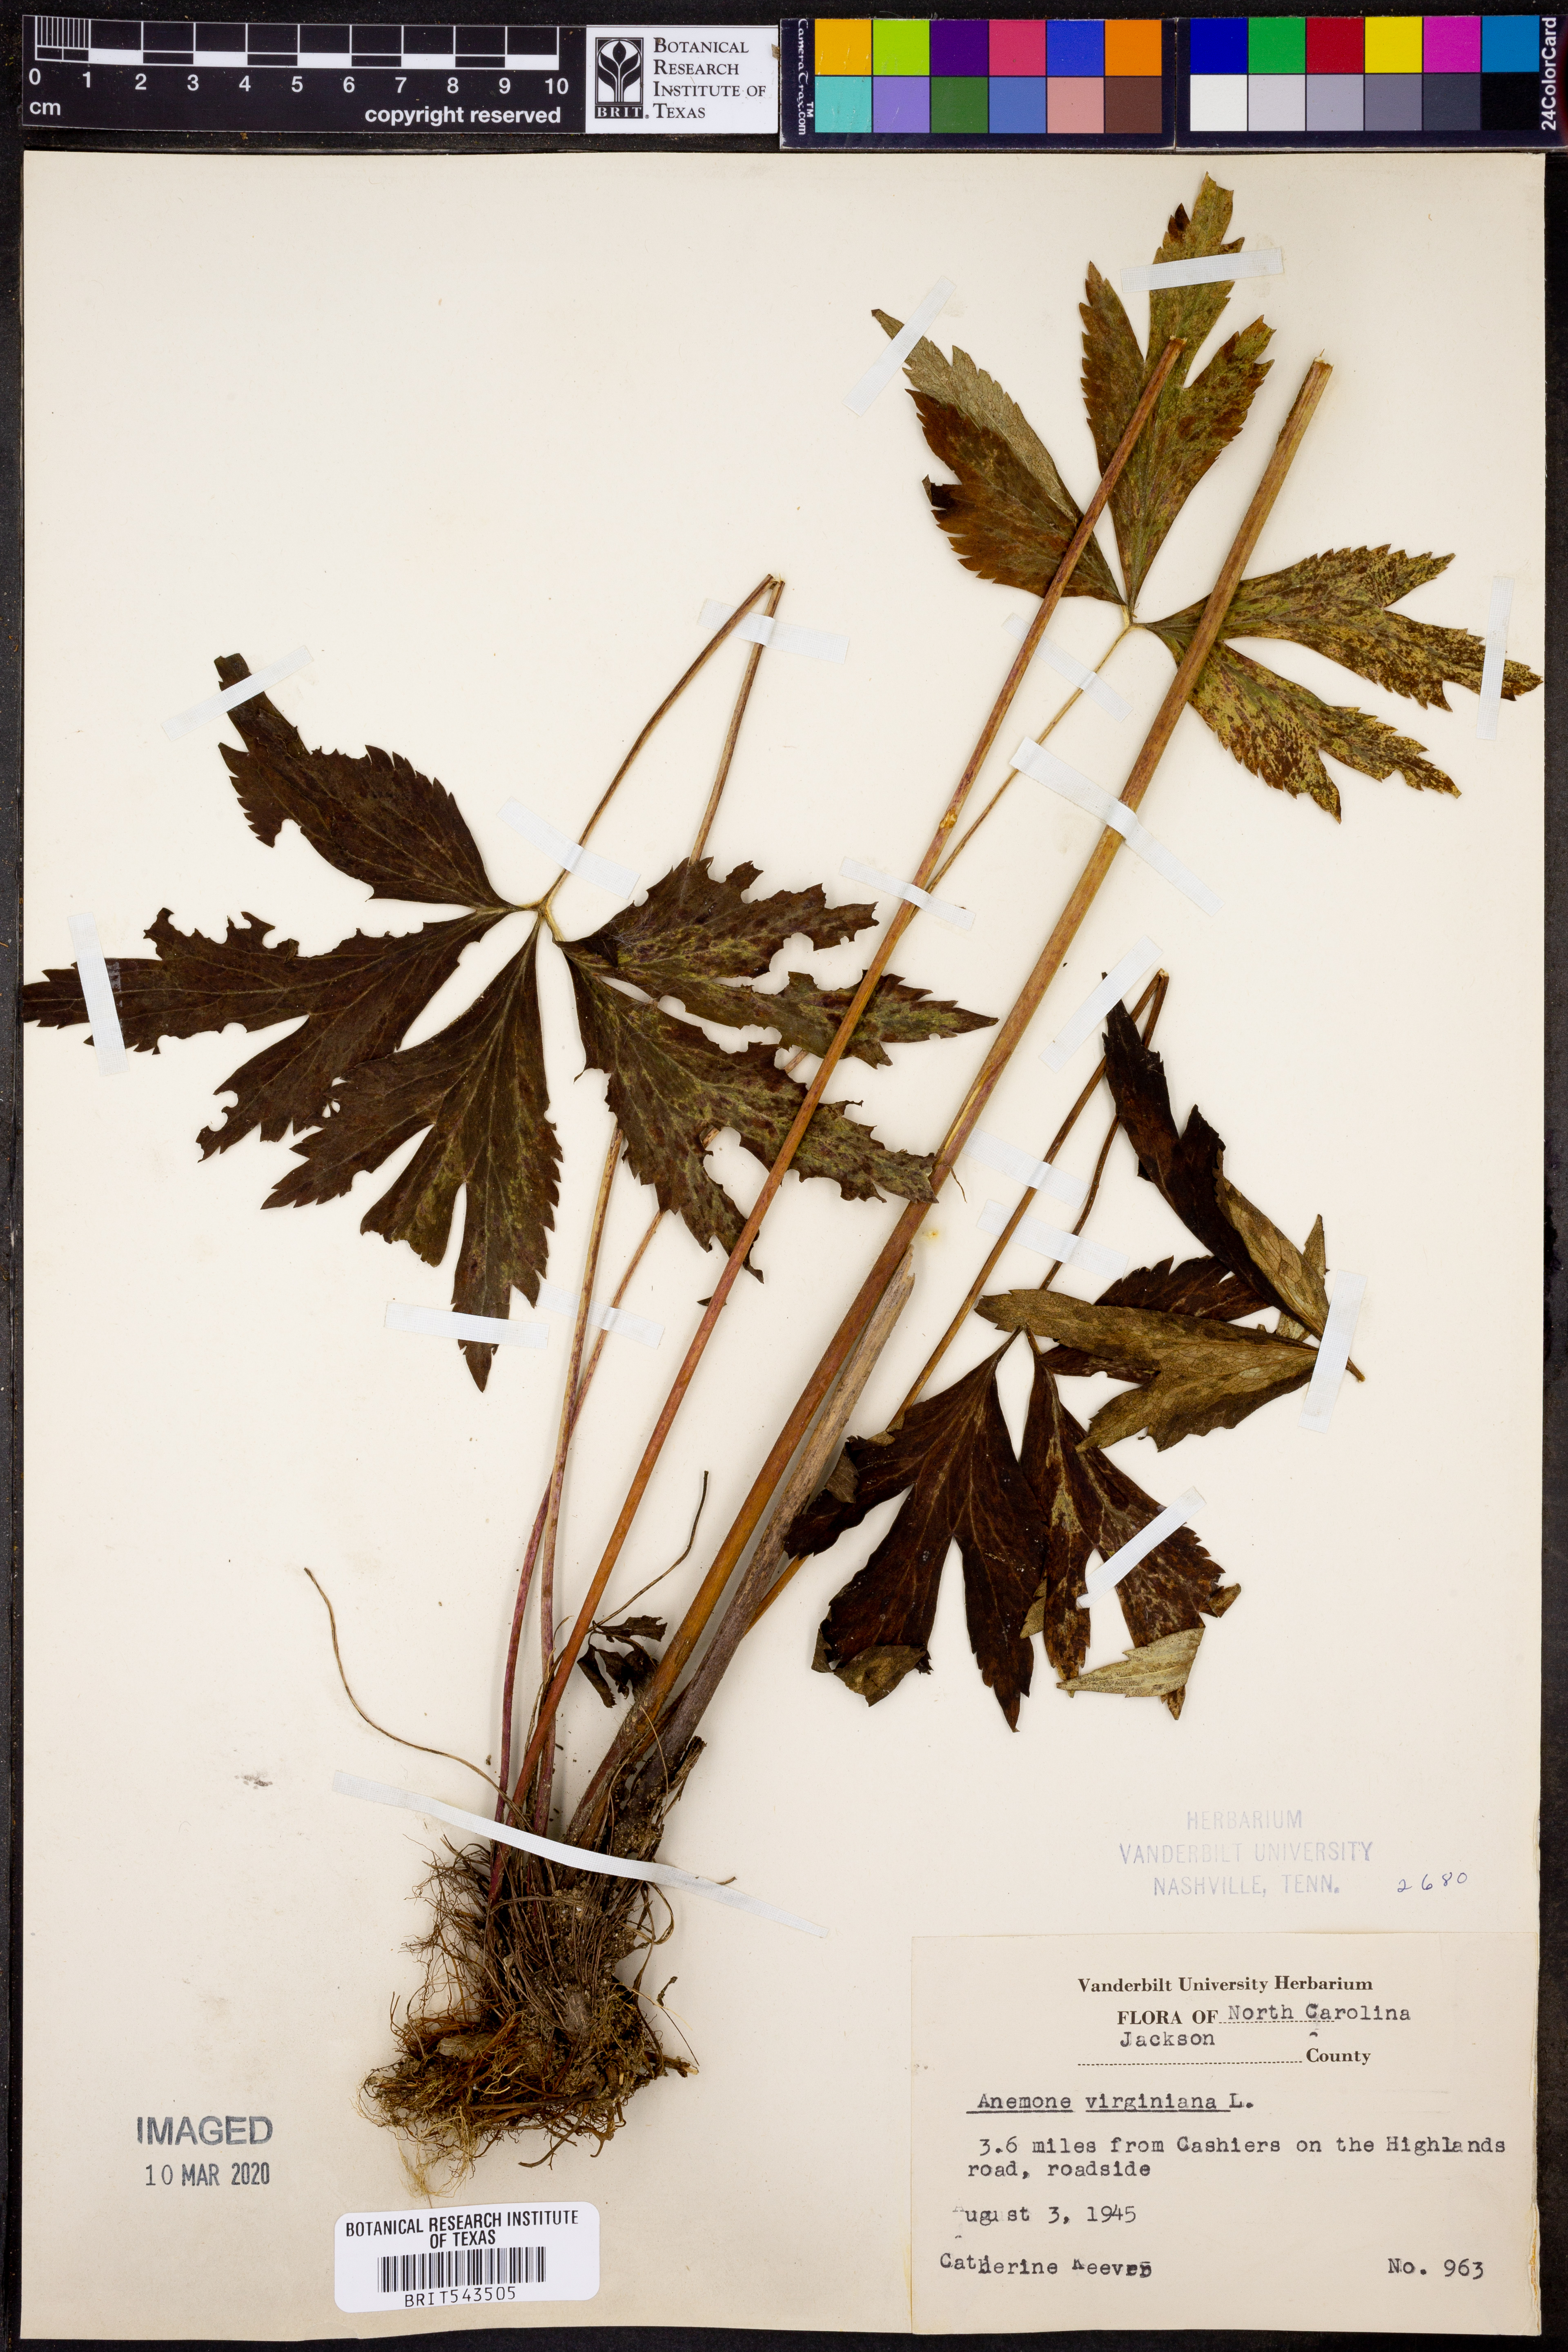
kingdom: Plantae
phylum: Tracheophyta
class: Magnoliopsida
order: Ranunculales
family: Ranunculaceae
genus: Anemone
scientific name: Anemone virginiana
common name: Tall anemone
